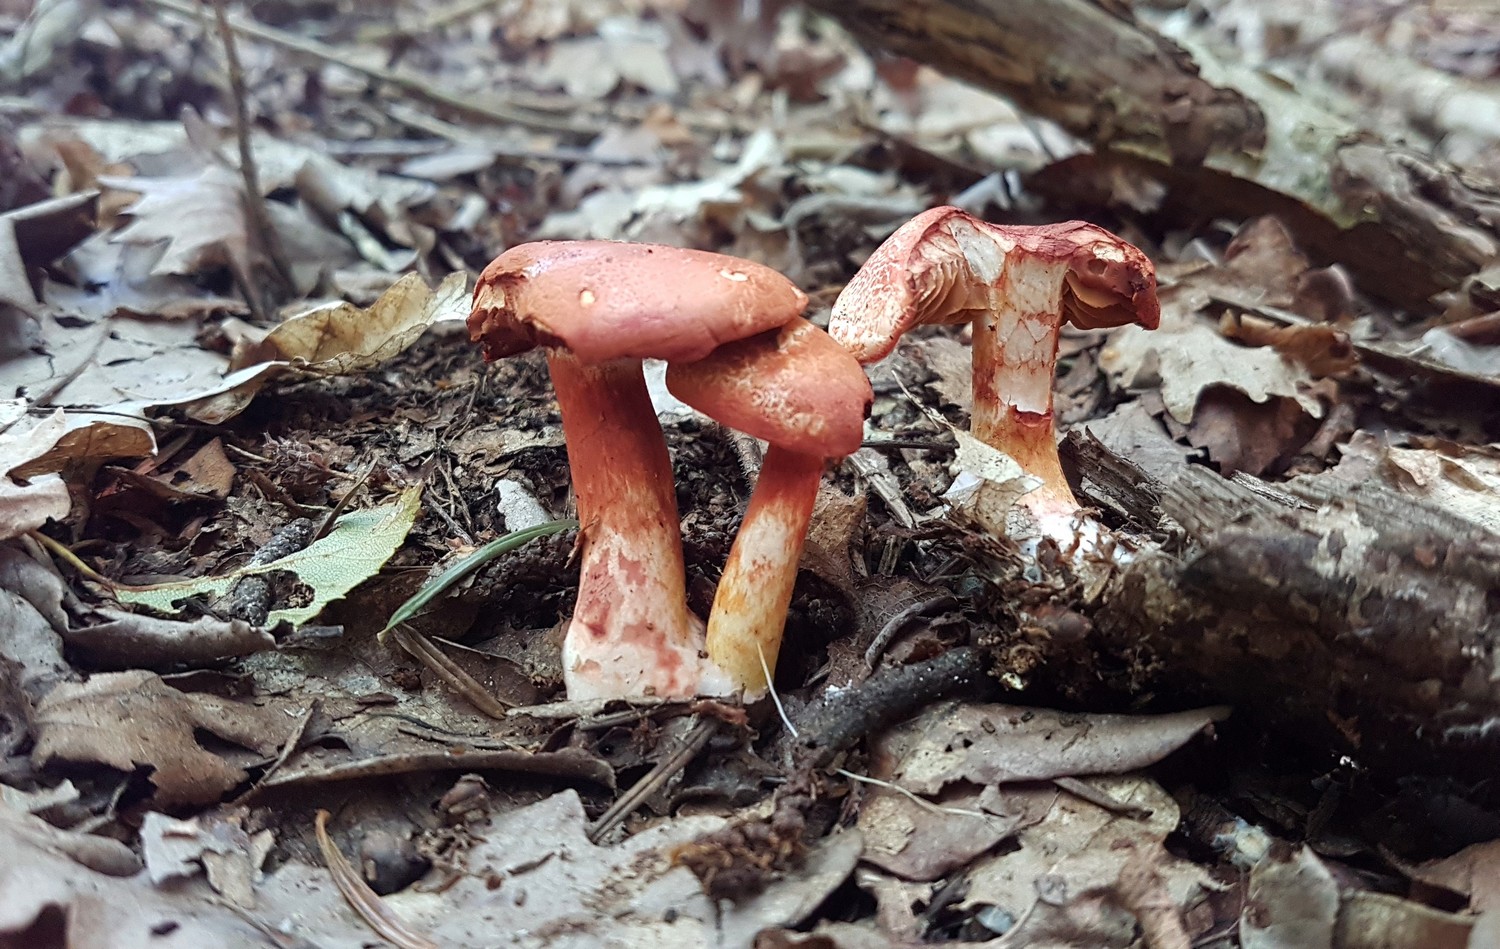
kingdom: Fungi
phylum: Basidiomycota
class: Agaricomycetes
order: Agaricales
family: Cortinariaceae
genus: Cortinarius
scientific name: Cortinarius bolaris
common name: cinnoberskællet slørhat
